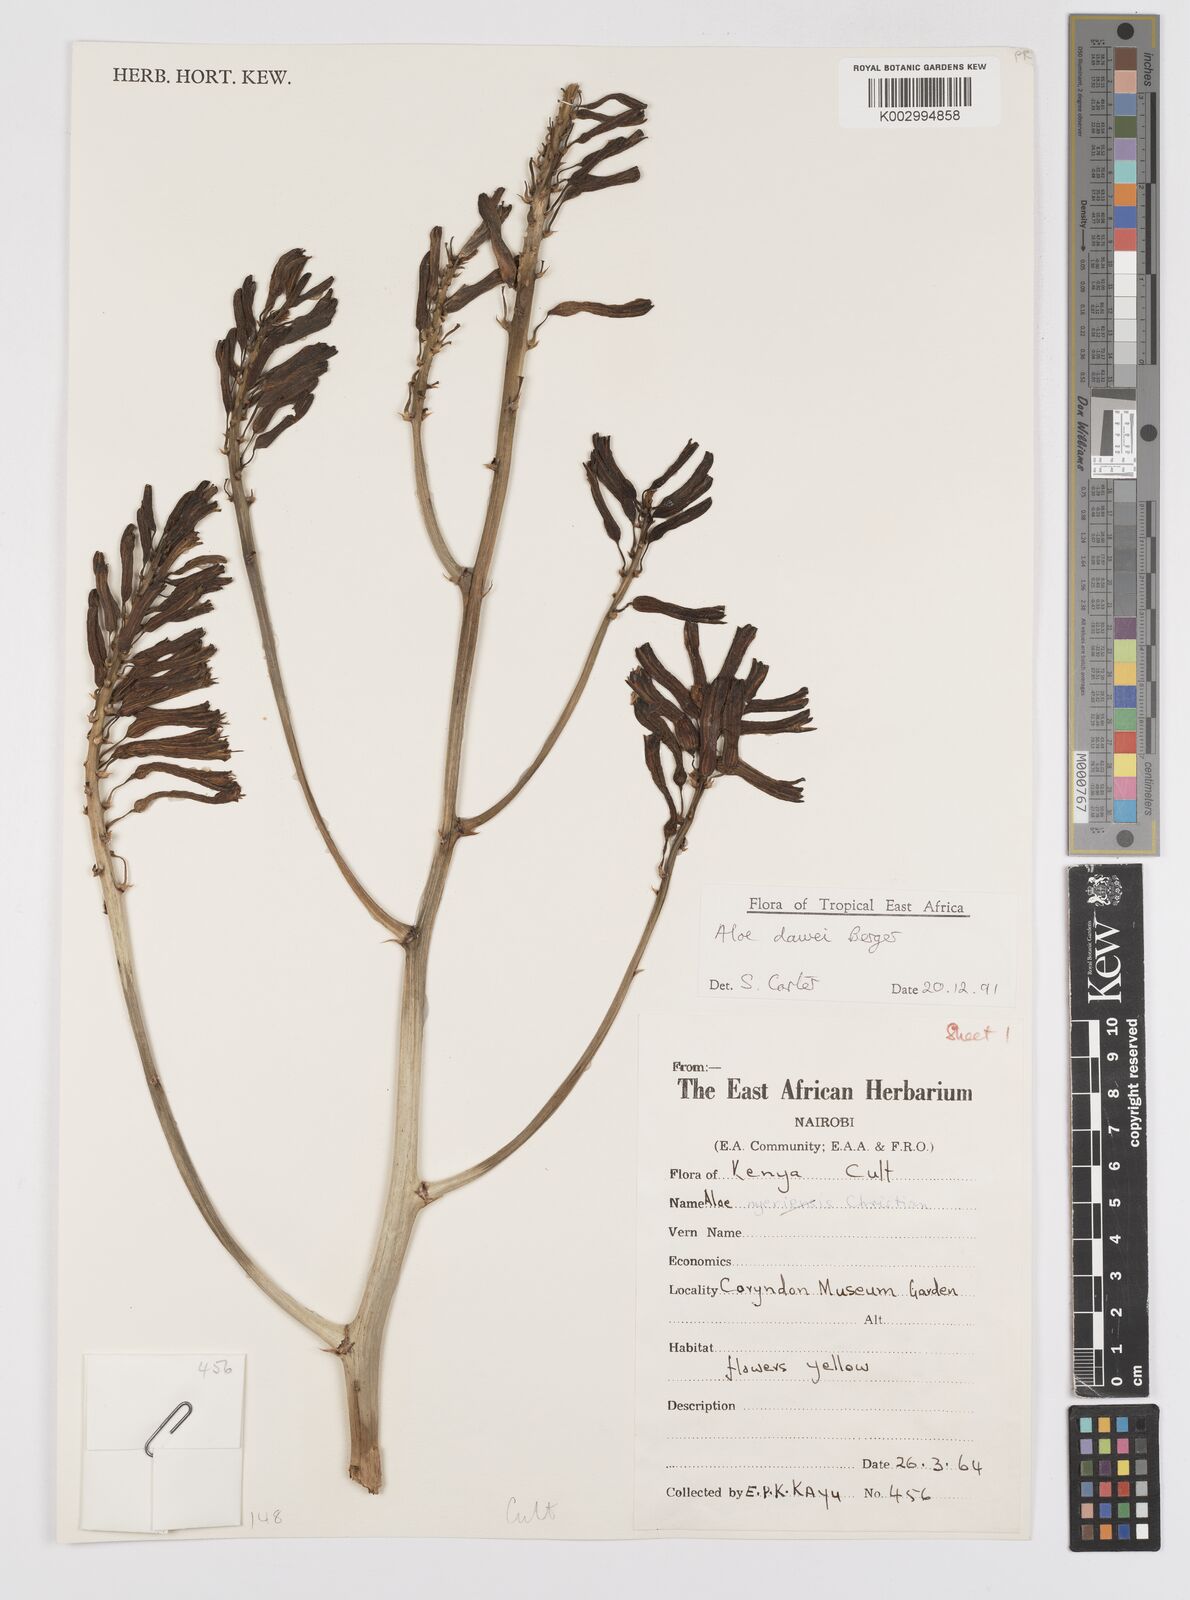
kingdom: Plantae
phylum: Tracheophyta
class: Liliopsida
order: Asparagales
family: Asphodelaceae
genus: Aloe
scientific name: Aloe
